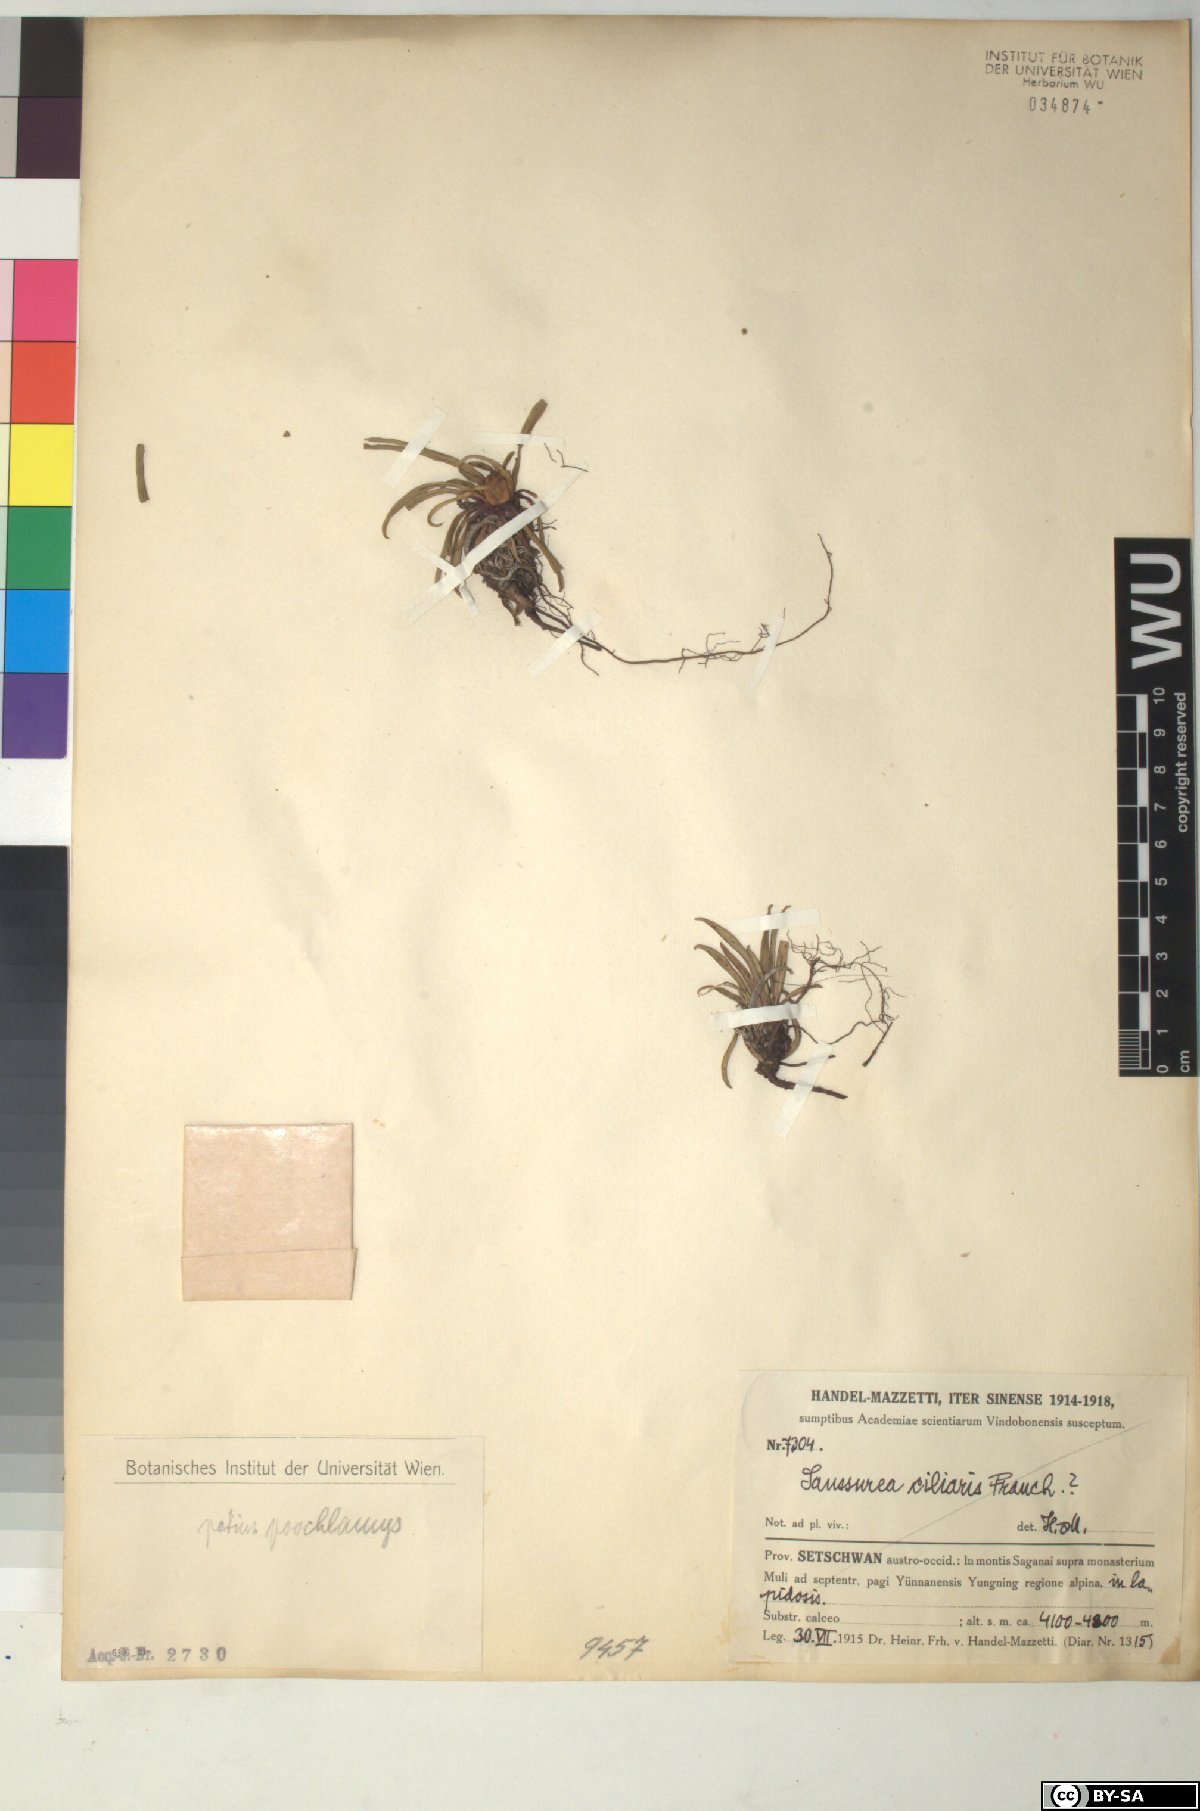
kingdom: Plantae
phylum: Tracheophyta
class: Magnoliopsida
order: Asterales
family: Asteraceae
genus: Saussurea
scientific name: Saussurea poochlamys
